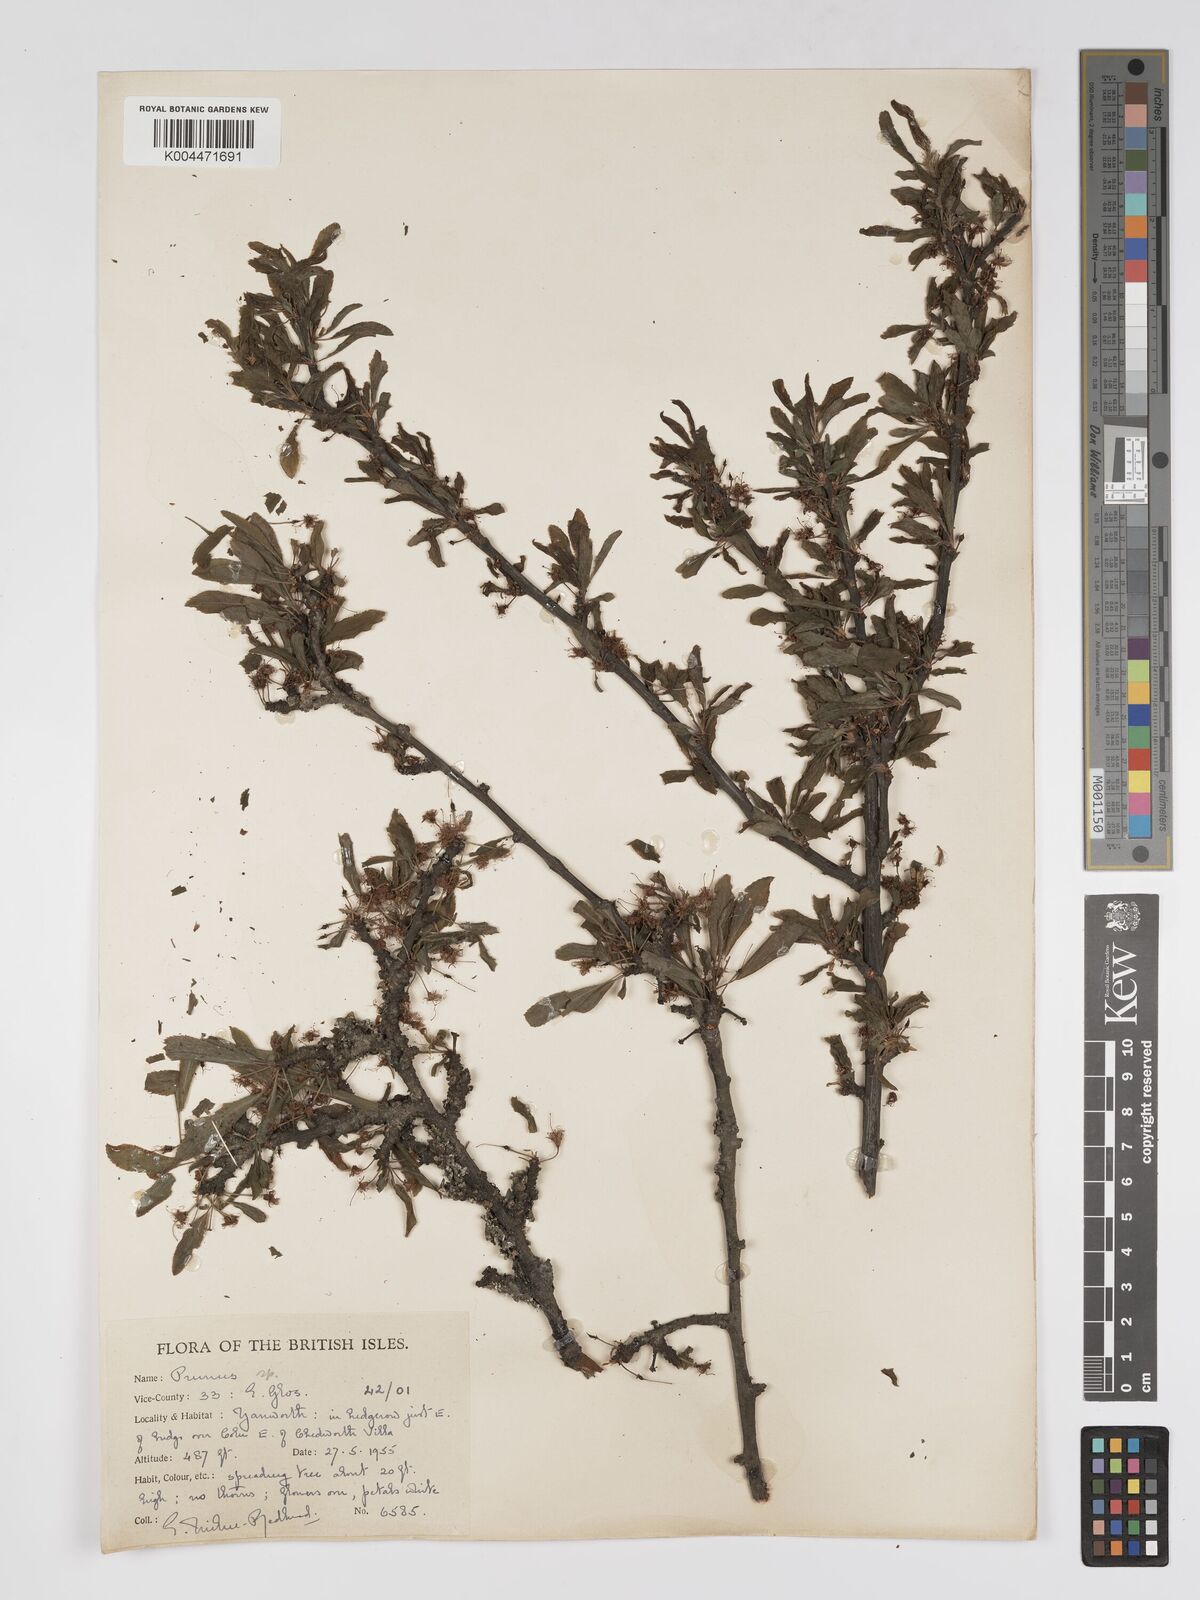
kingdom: Plantae
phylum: Tracheophyta
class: Magnoliopsida
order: Rosales
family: Rosaceae
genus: Prunus
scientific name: Prunus
